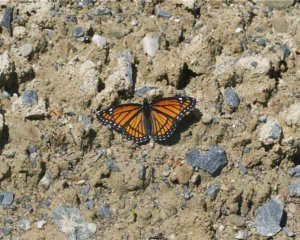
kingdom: Animalia
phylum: Arthropoda
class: Insecta
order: Lepidoptera
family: Nymphalidae
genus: Limenitis
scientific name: Limenitis archippus
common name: Viceroy
